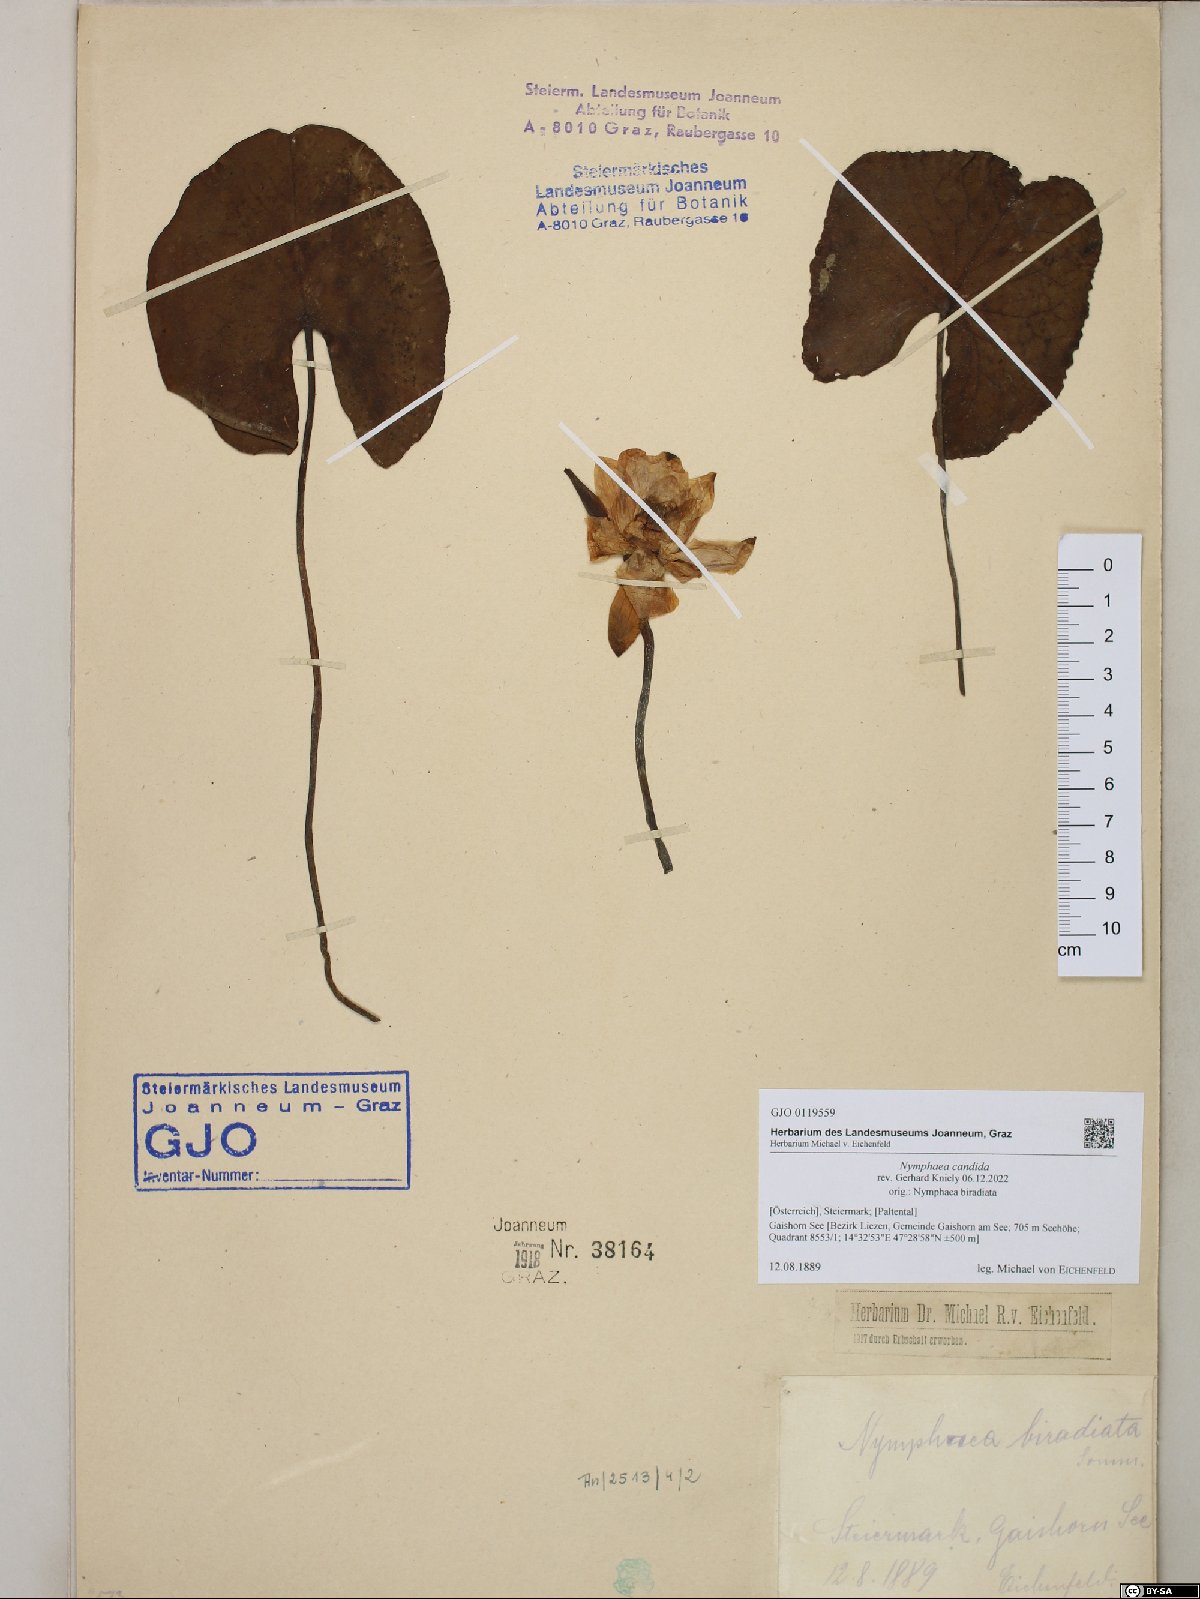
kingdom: Plantae
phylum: Tracheophyta
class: Magnoliopsida
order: Nymphaeales
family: Nymphaeaceae
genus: Nymphaea
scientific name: Nymphaea candida
